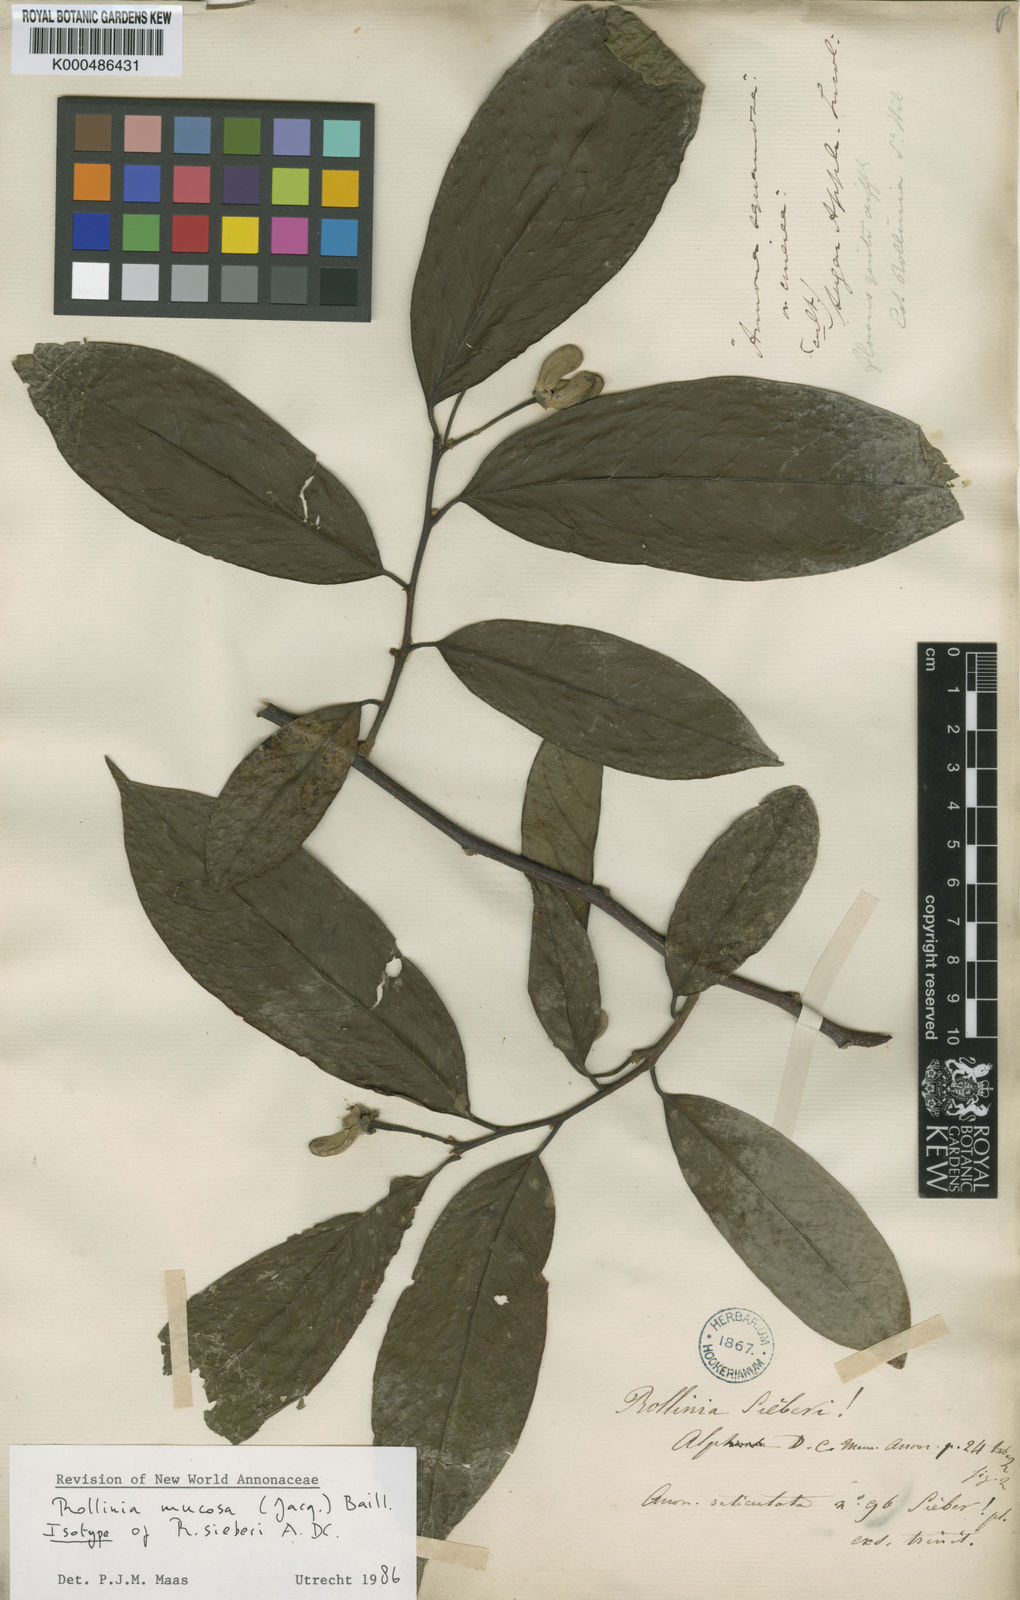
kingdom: Plantae
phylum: Tracheophyta
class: Magnoliopsida
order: Magnoliales
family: Annonaceae
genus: Annona
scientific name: Annona mucosa
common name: Sugar apple
